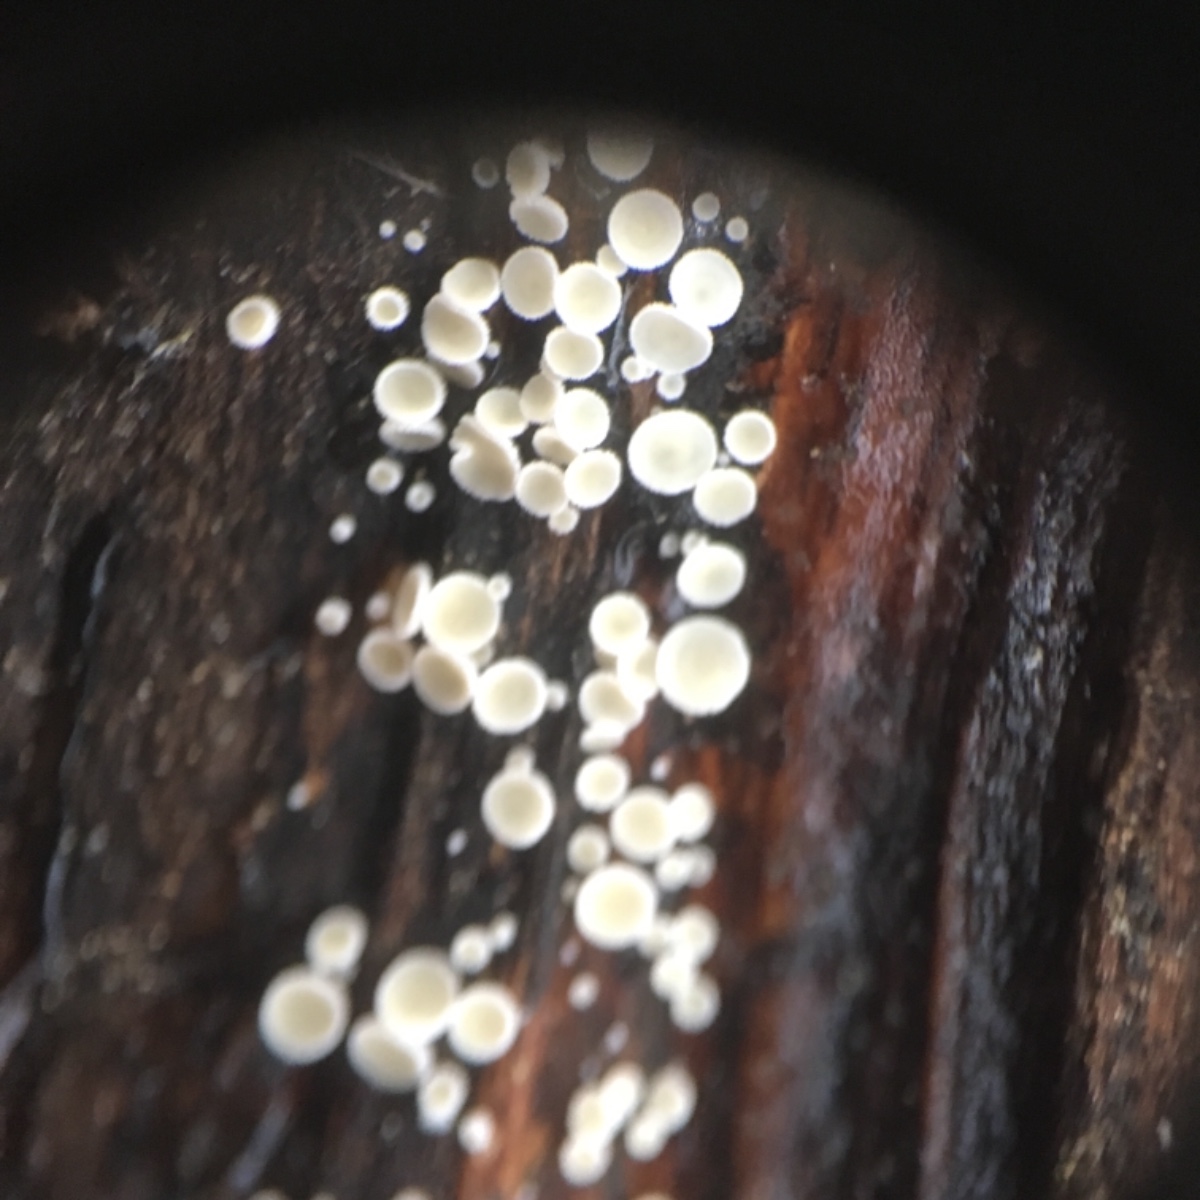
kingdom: Fungi
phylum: Ascomycota
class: Leotiomycetes
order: Helotiales
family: Lachnaceae
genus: Lachnum
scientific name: Lachnum
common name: frynseskive
